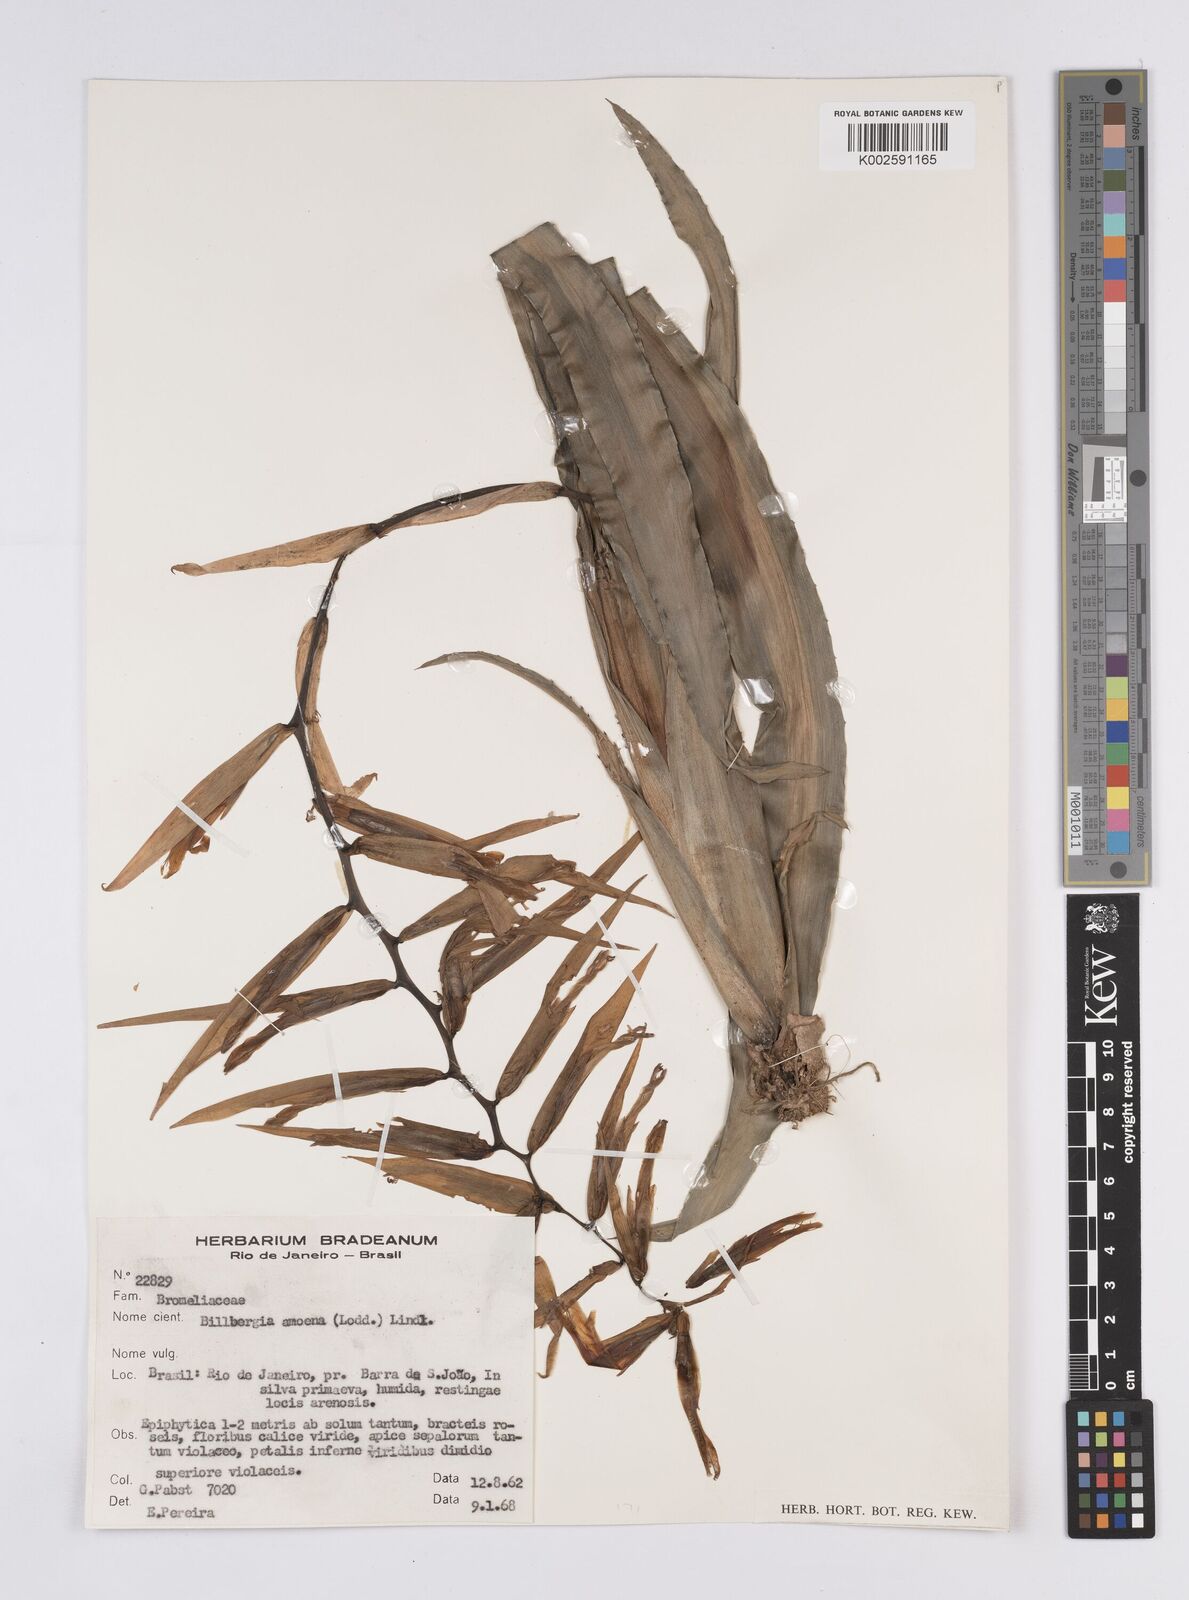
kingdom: Plantae
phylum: Tracheophyta
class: Liliopsida
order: Poales
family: Bromeliaceae
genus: Billbergia
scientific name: Billbergia amoena
